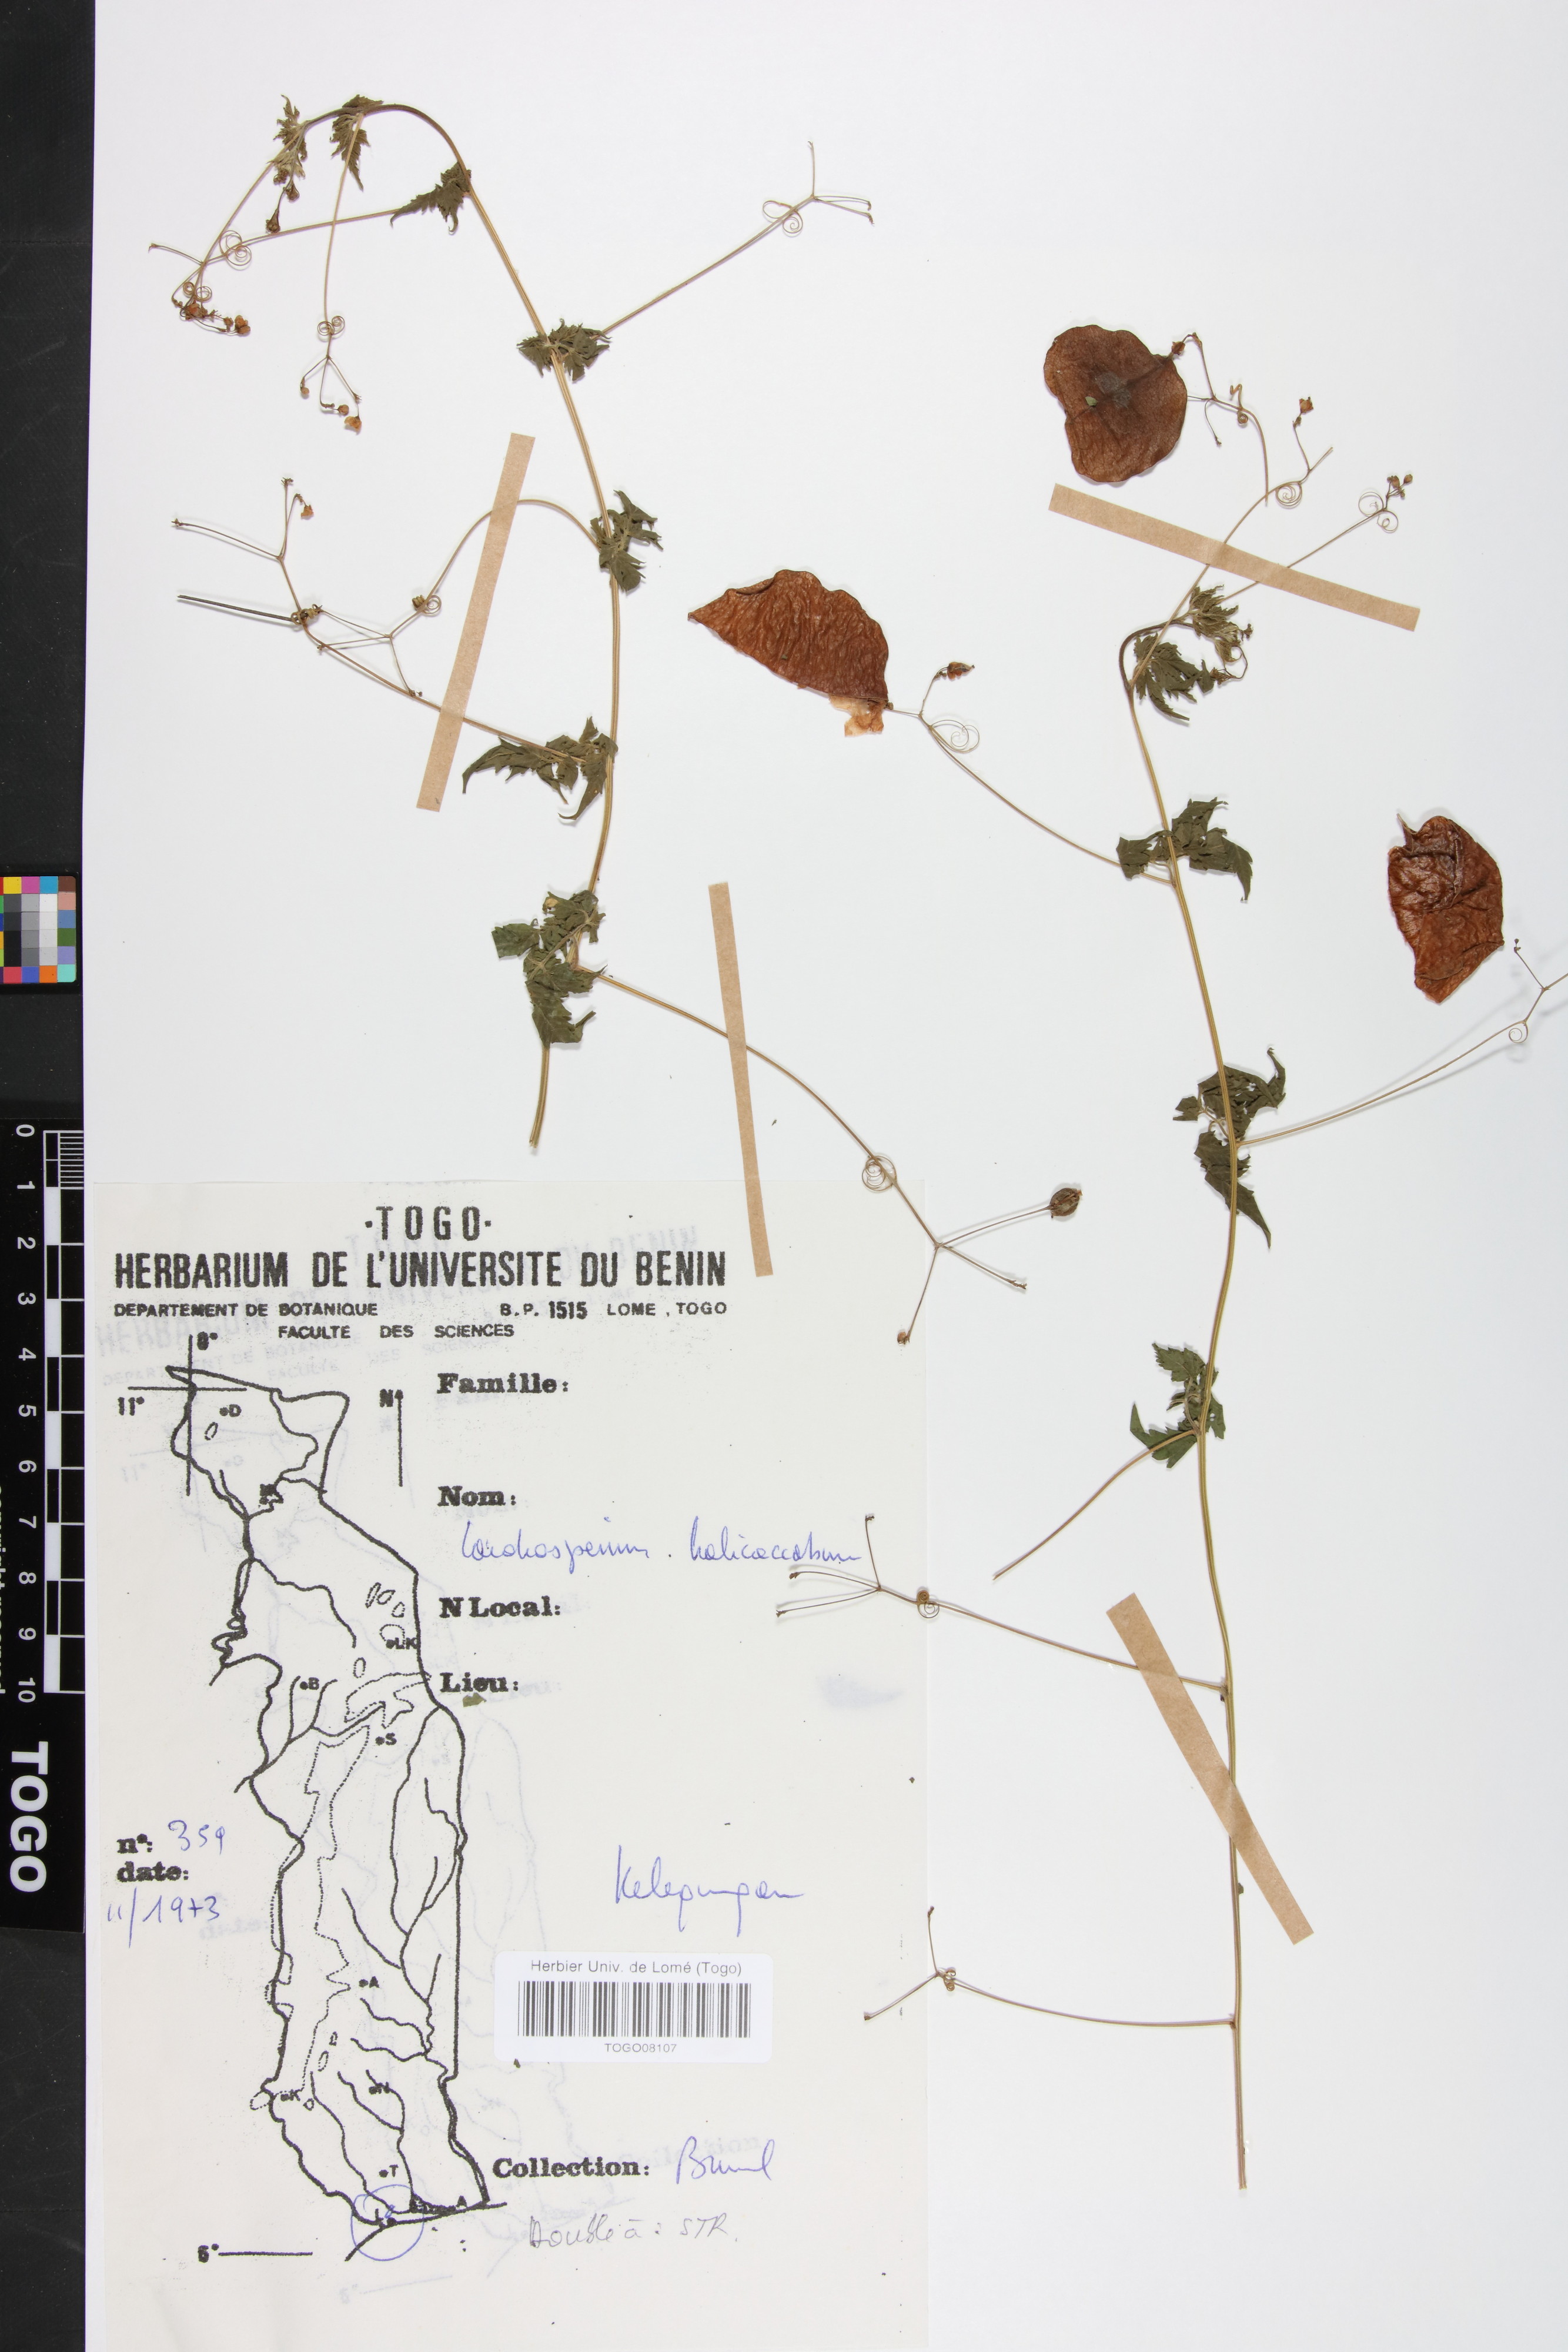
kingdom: Plantae
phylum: Tracheophyta
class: Magnoliopsida
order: Sapindales
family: Sapindaceae
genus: Cardiospermum
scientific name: Cardiospermum halicacabum
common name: Balloon vine
